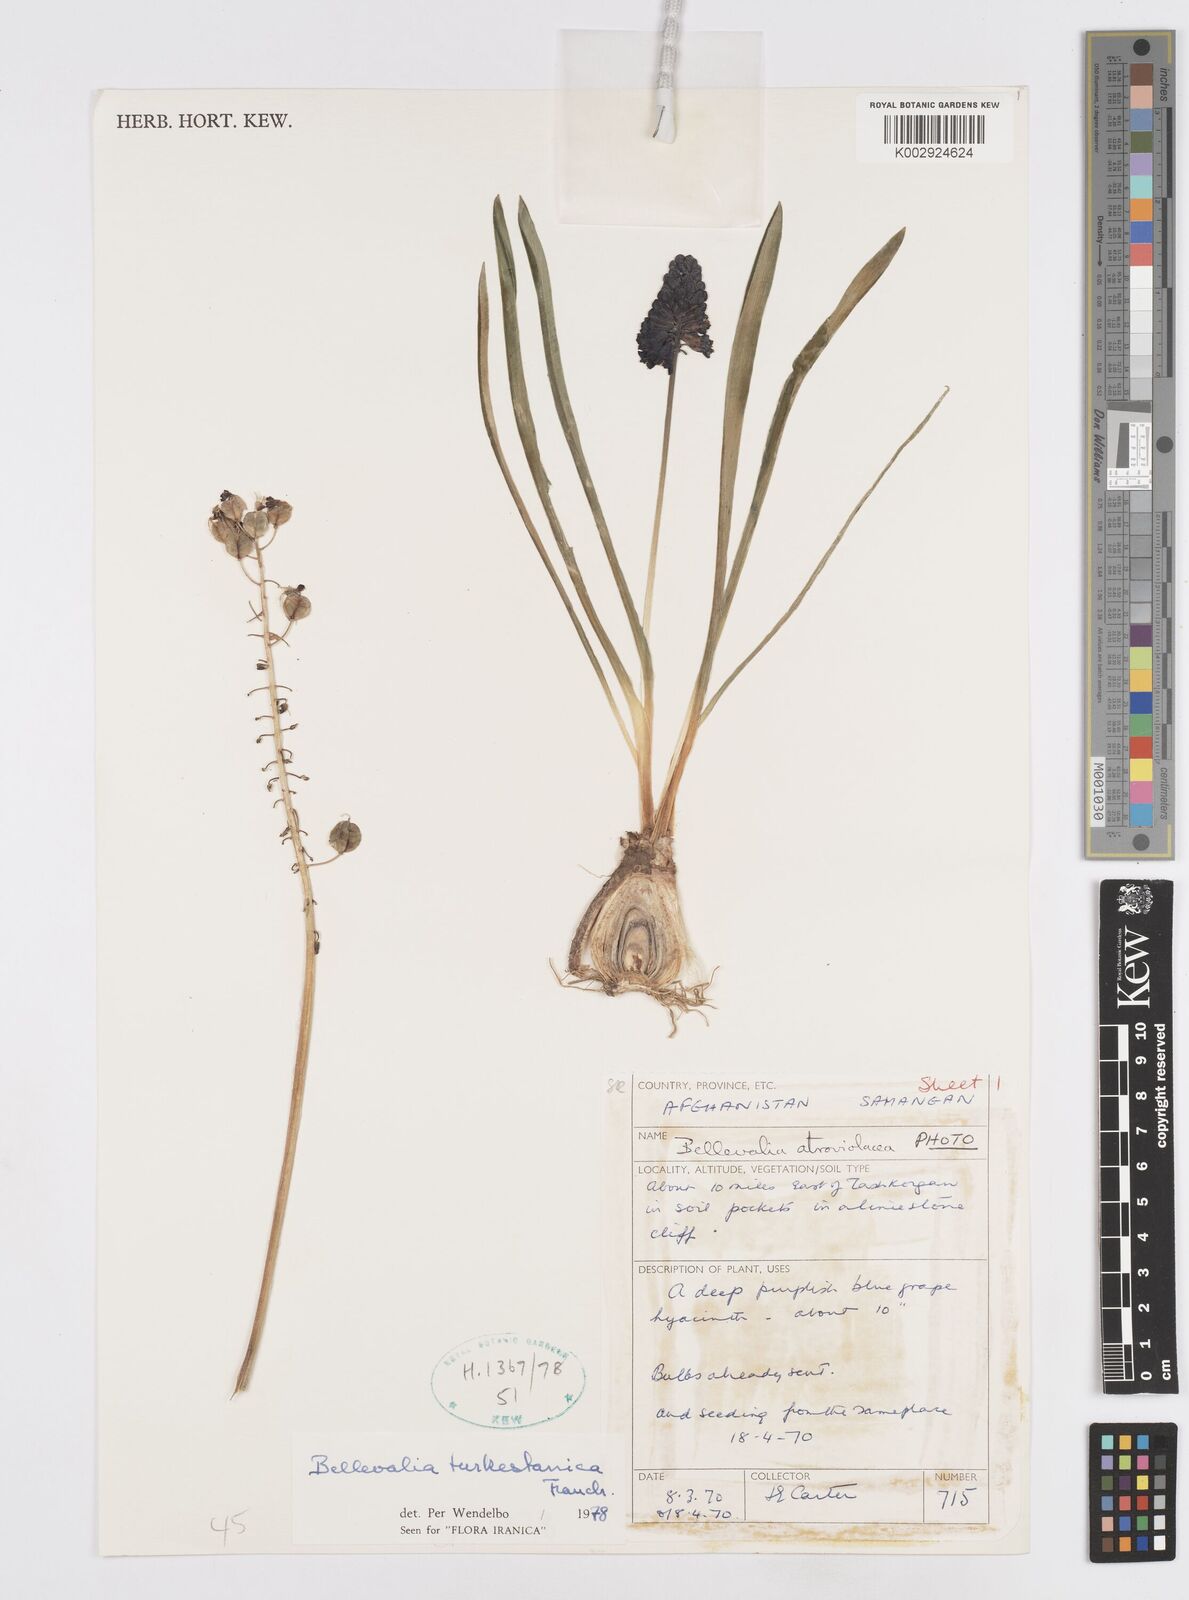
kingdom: Plantae
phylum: Tracheophyta
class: Liliopsida
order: Asparagales
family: Asparagaceae
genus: Bellevalia
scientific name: Bellevalia turkestanica
